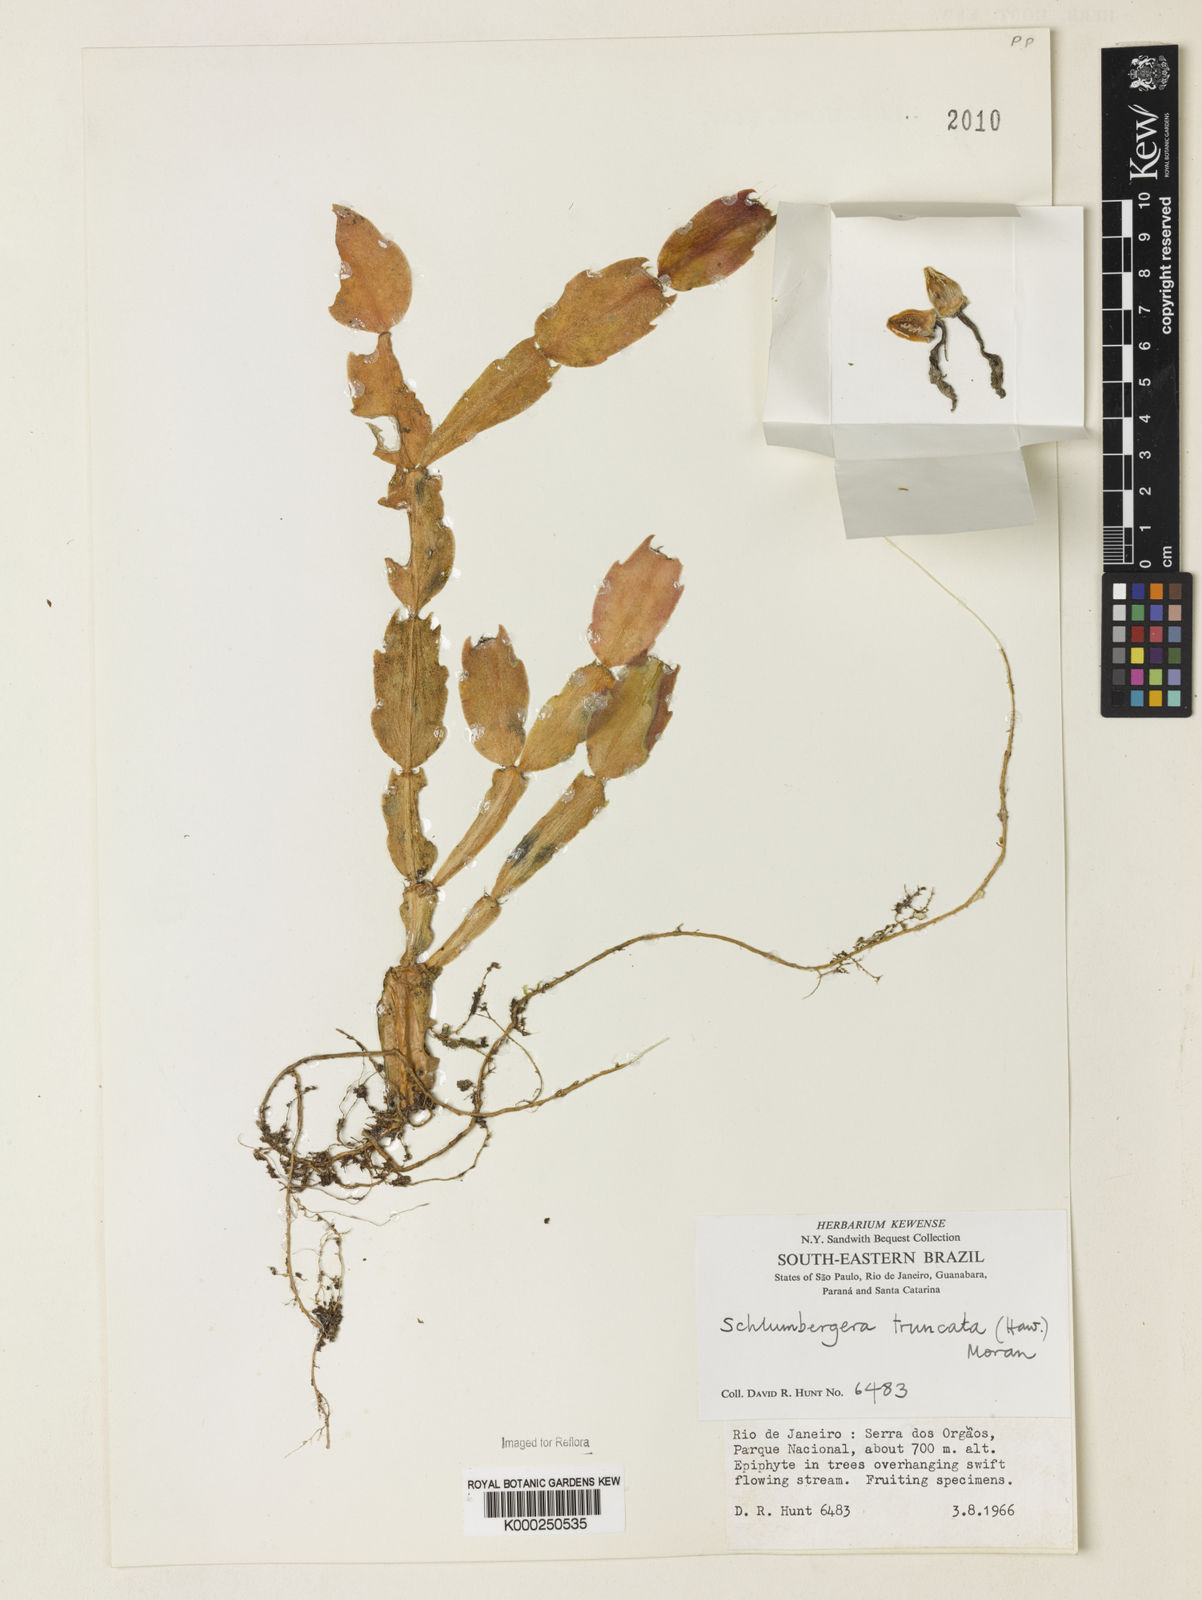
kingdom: Plantae
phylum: Tracheophyta
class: Magnoliopsida
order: Caryophyllales
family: Cactaceae
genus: Schlumbergera
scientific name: Schlumbergera truncata
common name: Thanksgiving cactus
